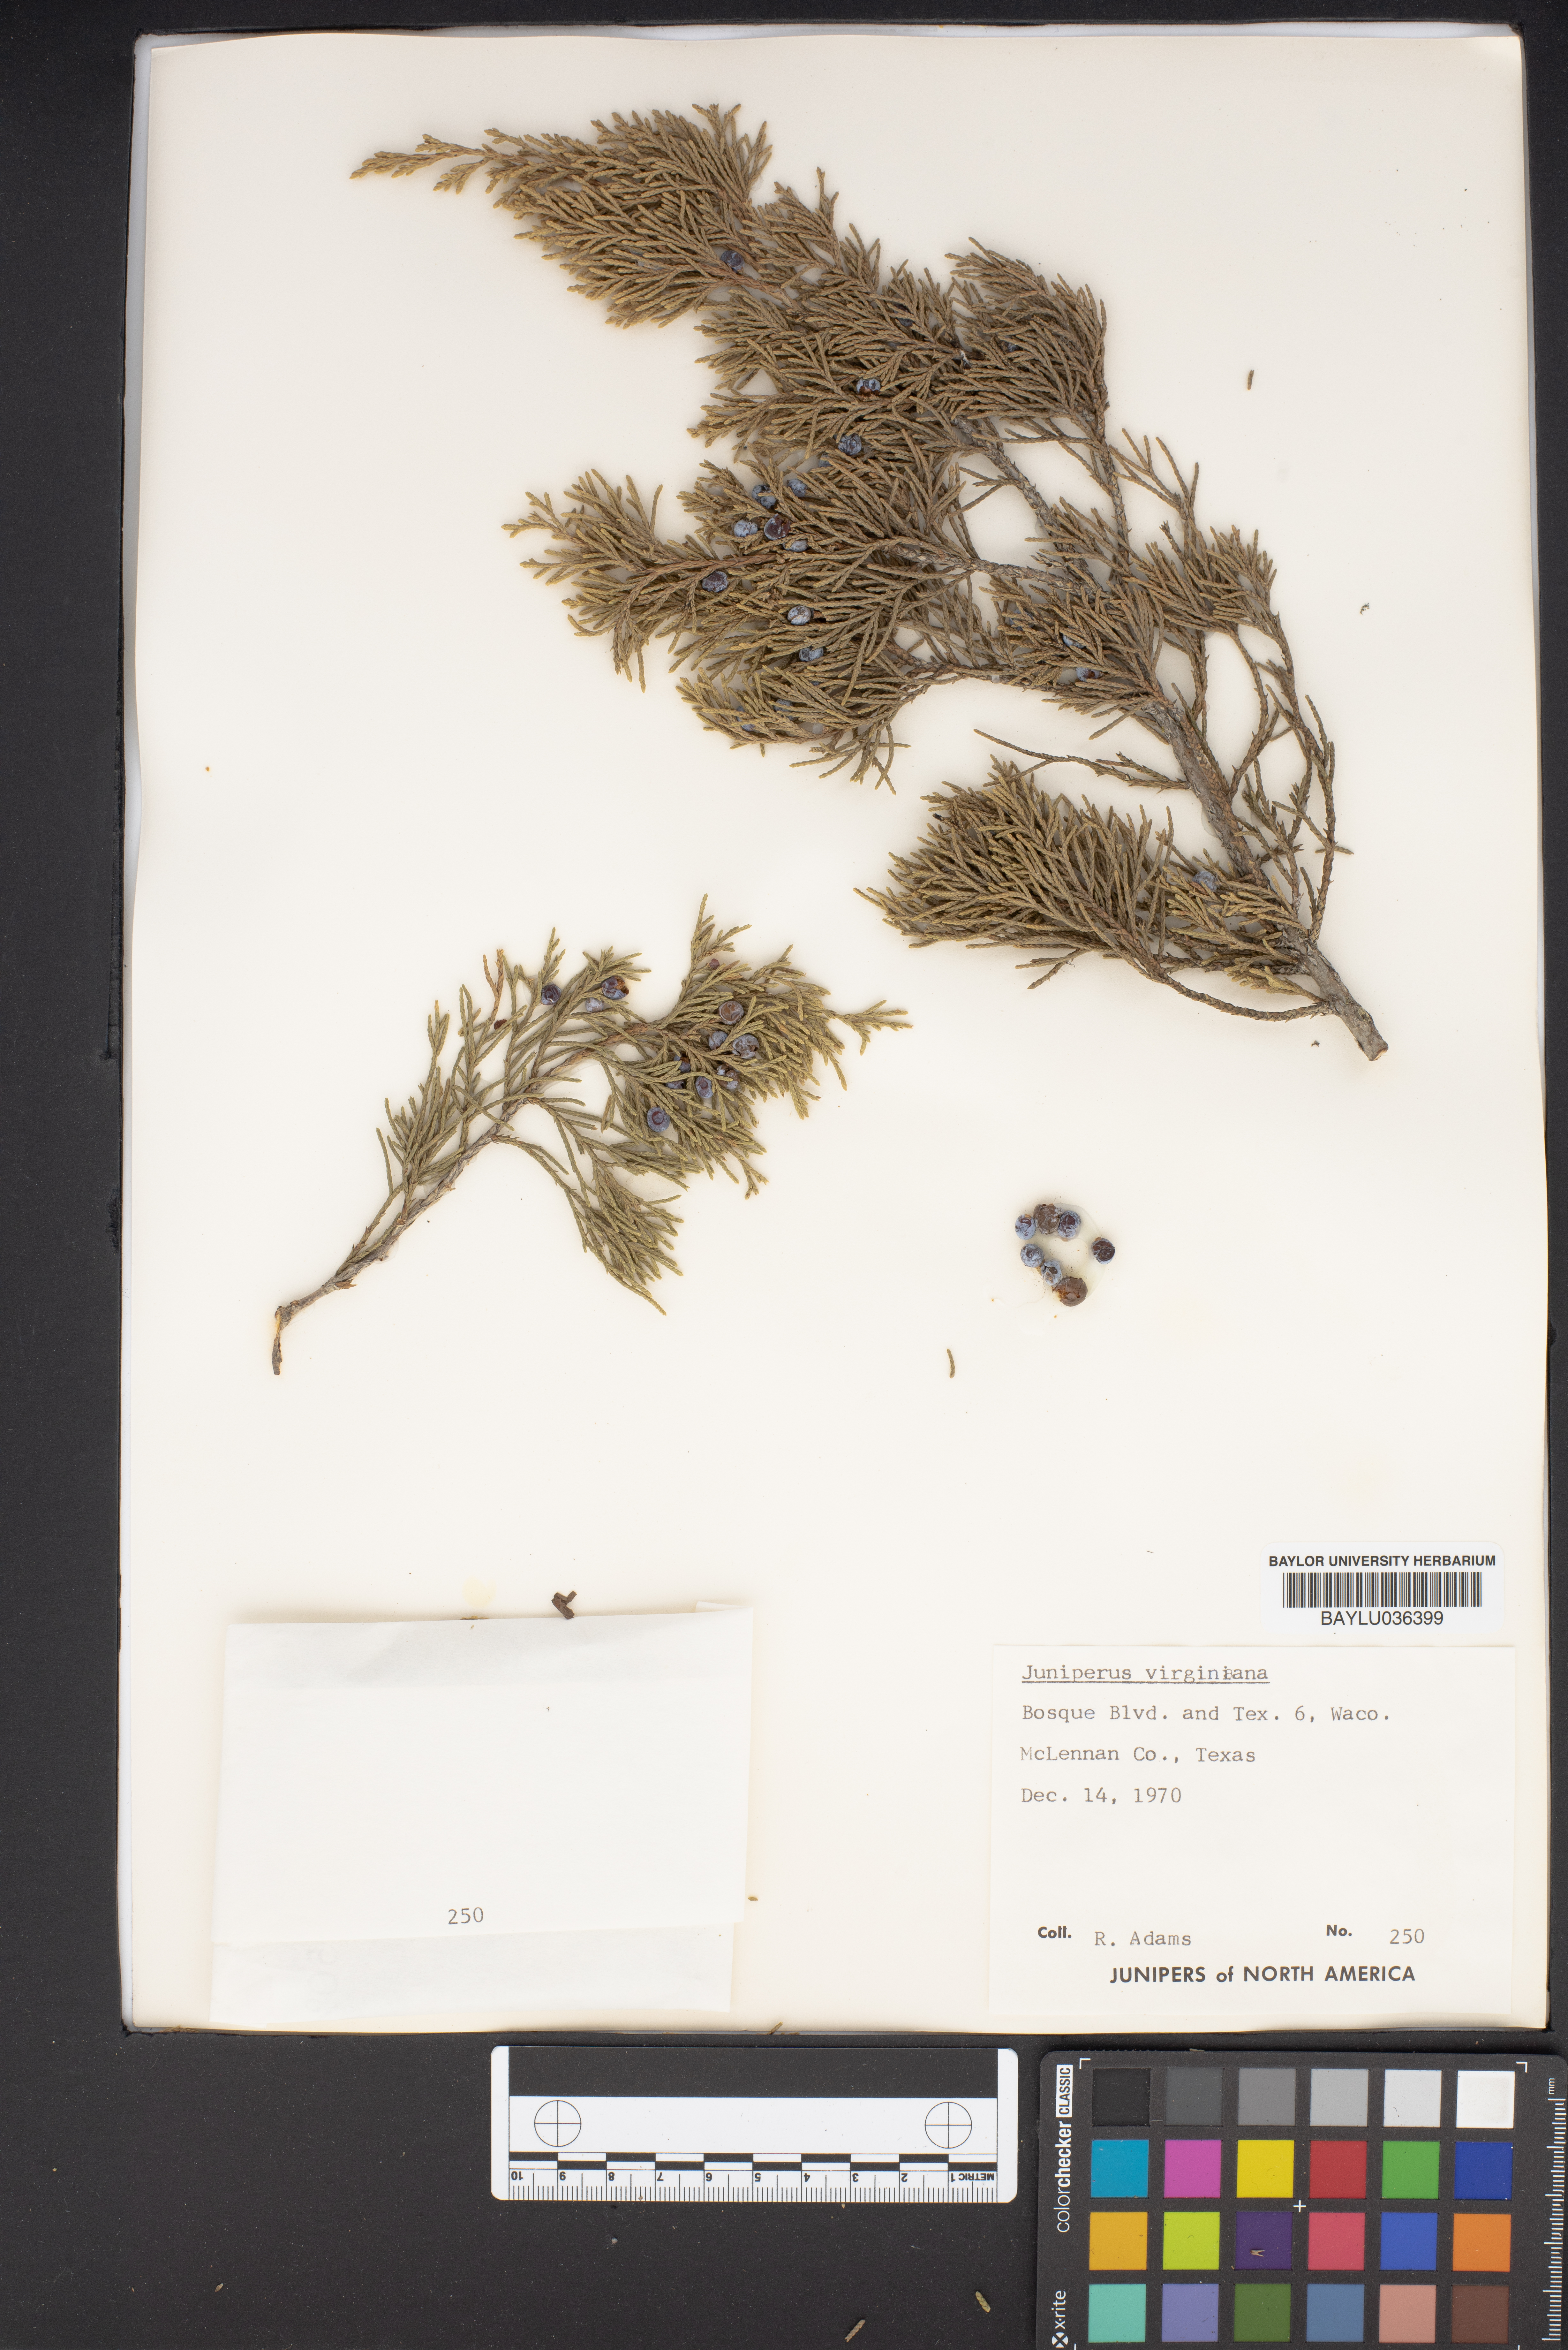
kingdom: Plantae
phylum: Tracheophyta
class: Pinopsida
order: Pinales
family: Cupressaceae
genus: Juniperus
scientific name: Juniperus virginiana
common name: Red juniper
